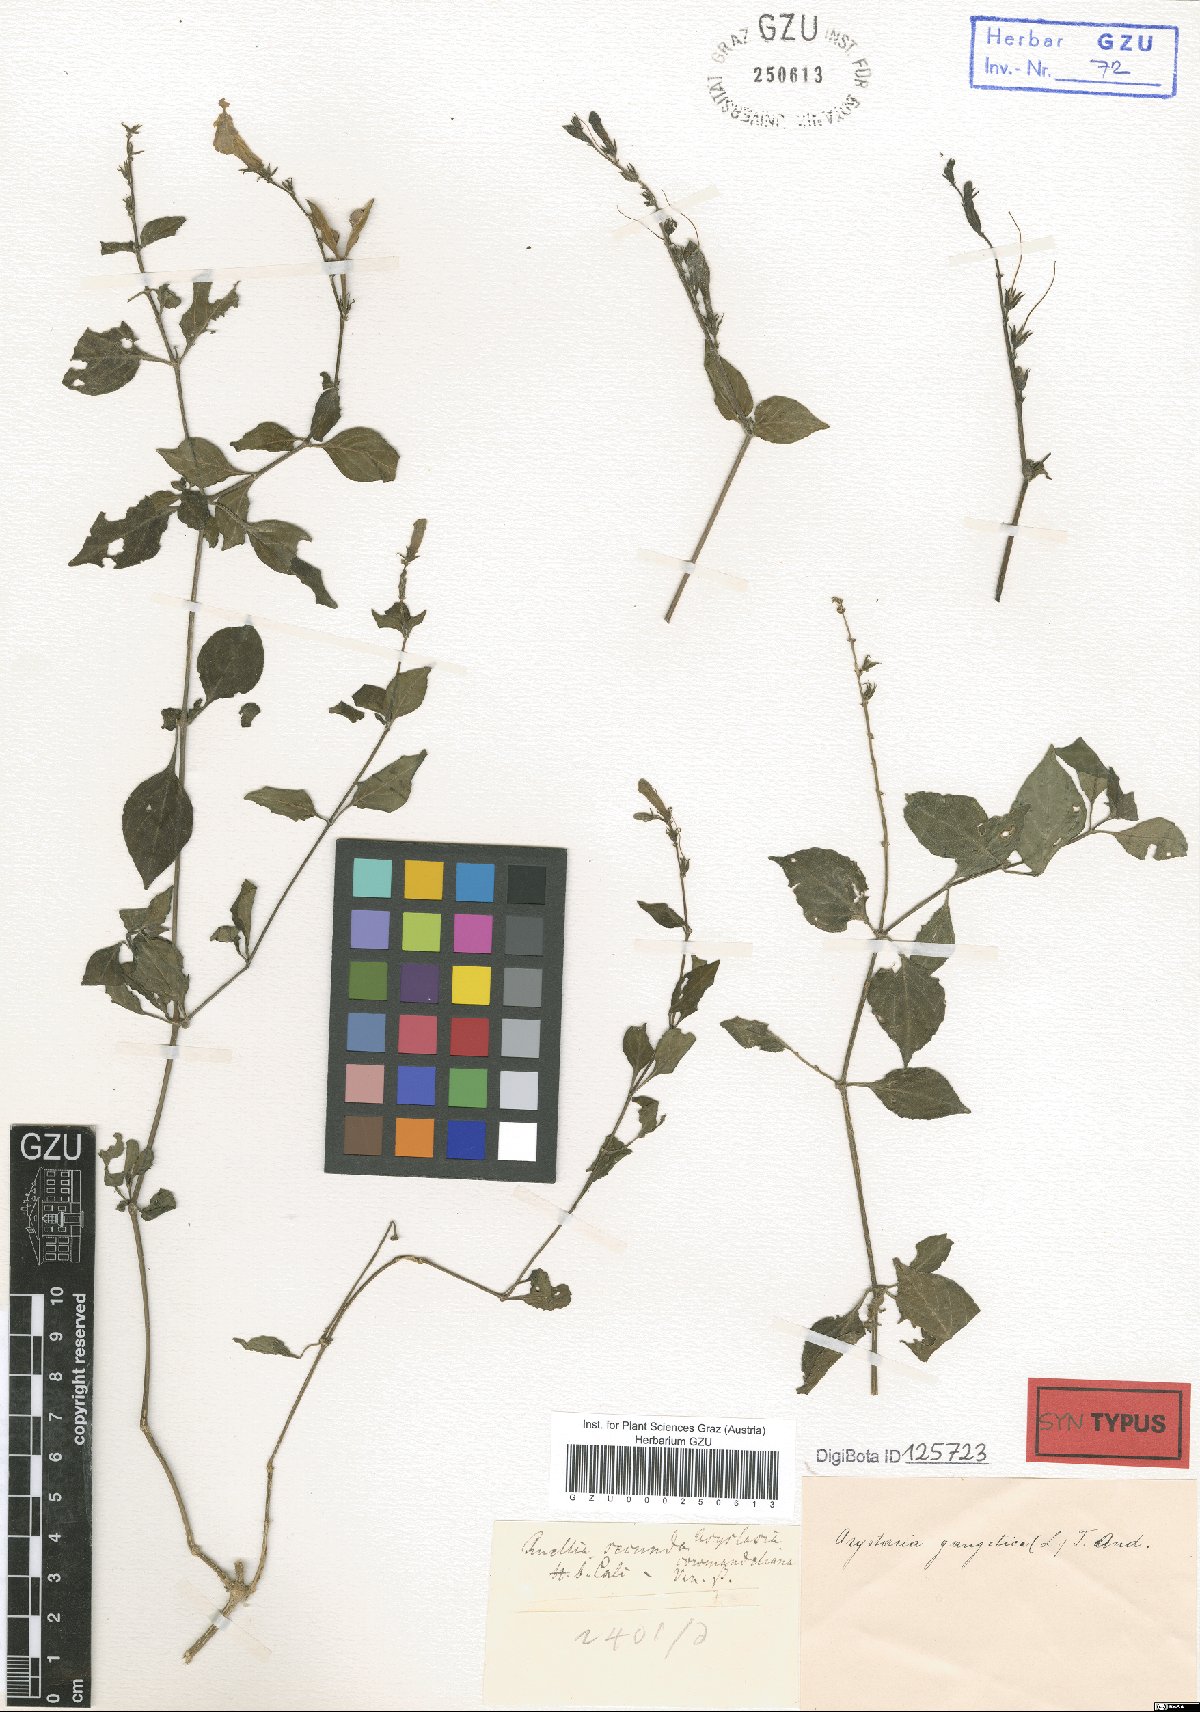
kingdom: Plantae
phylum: Tracheophyta
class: Magnoliopsida
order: Lamiales
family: Acanthaceae
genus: Asystasia
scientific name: Asystasia gangetica
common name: Chinese violet
